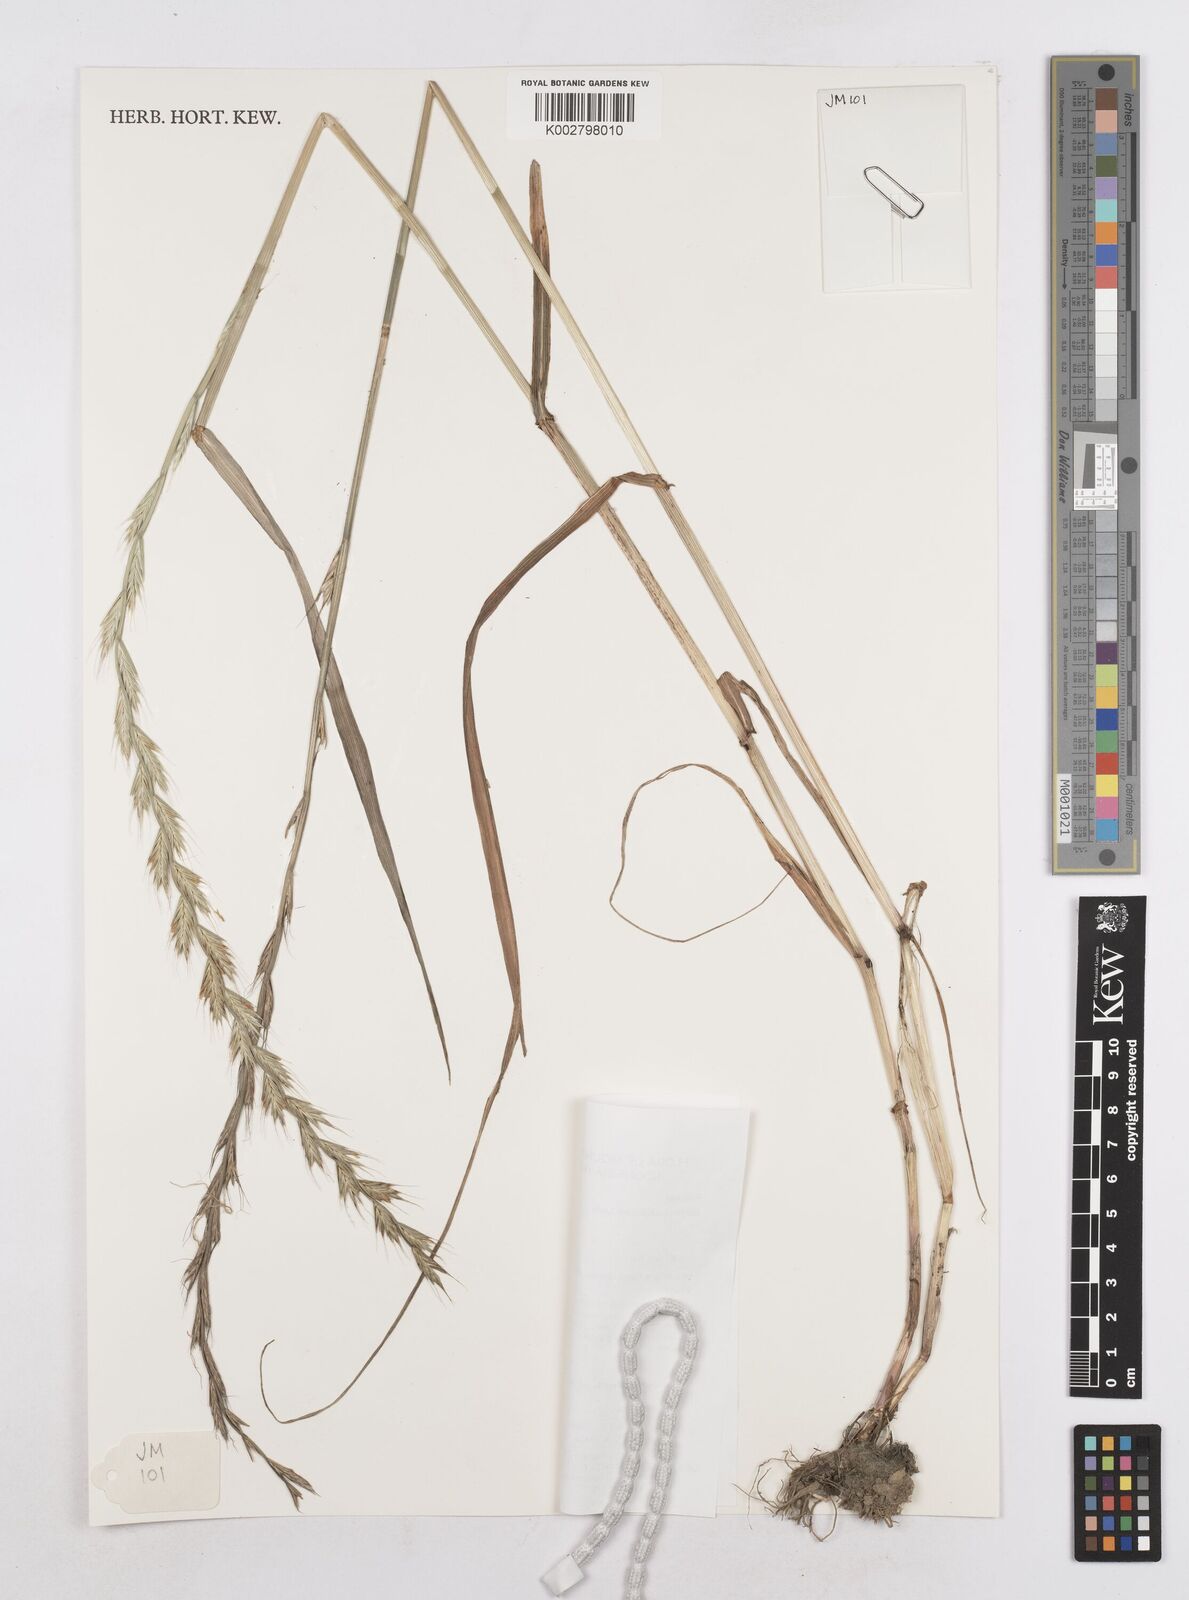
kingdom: Plantae
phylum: Tracheophyta
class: Liliopsida
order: Poales
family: Poaceae
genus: Lolium
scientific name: Lolium multiflorum
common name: Annual ryegrass
